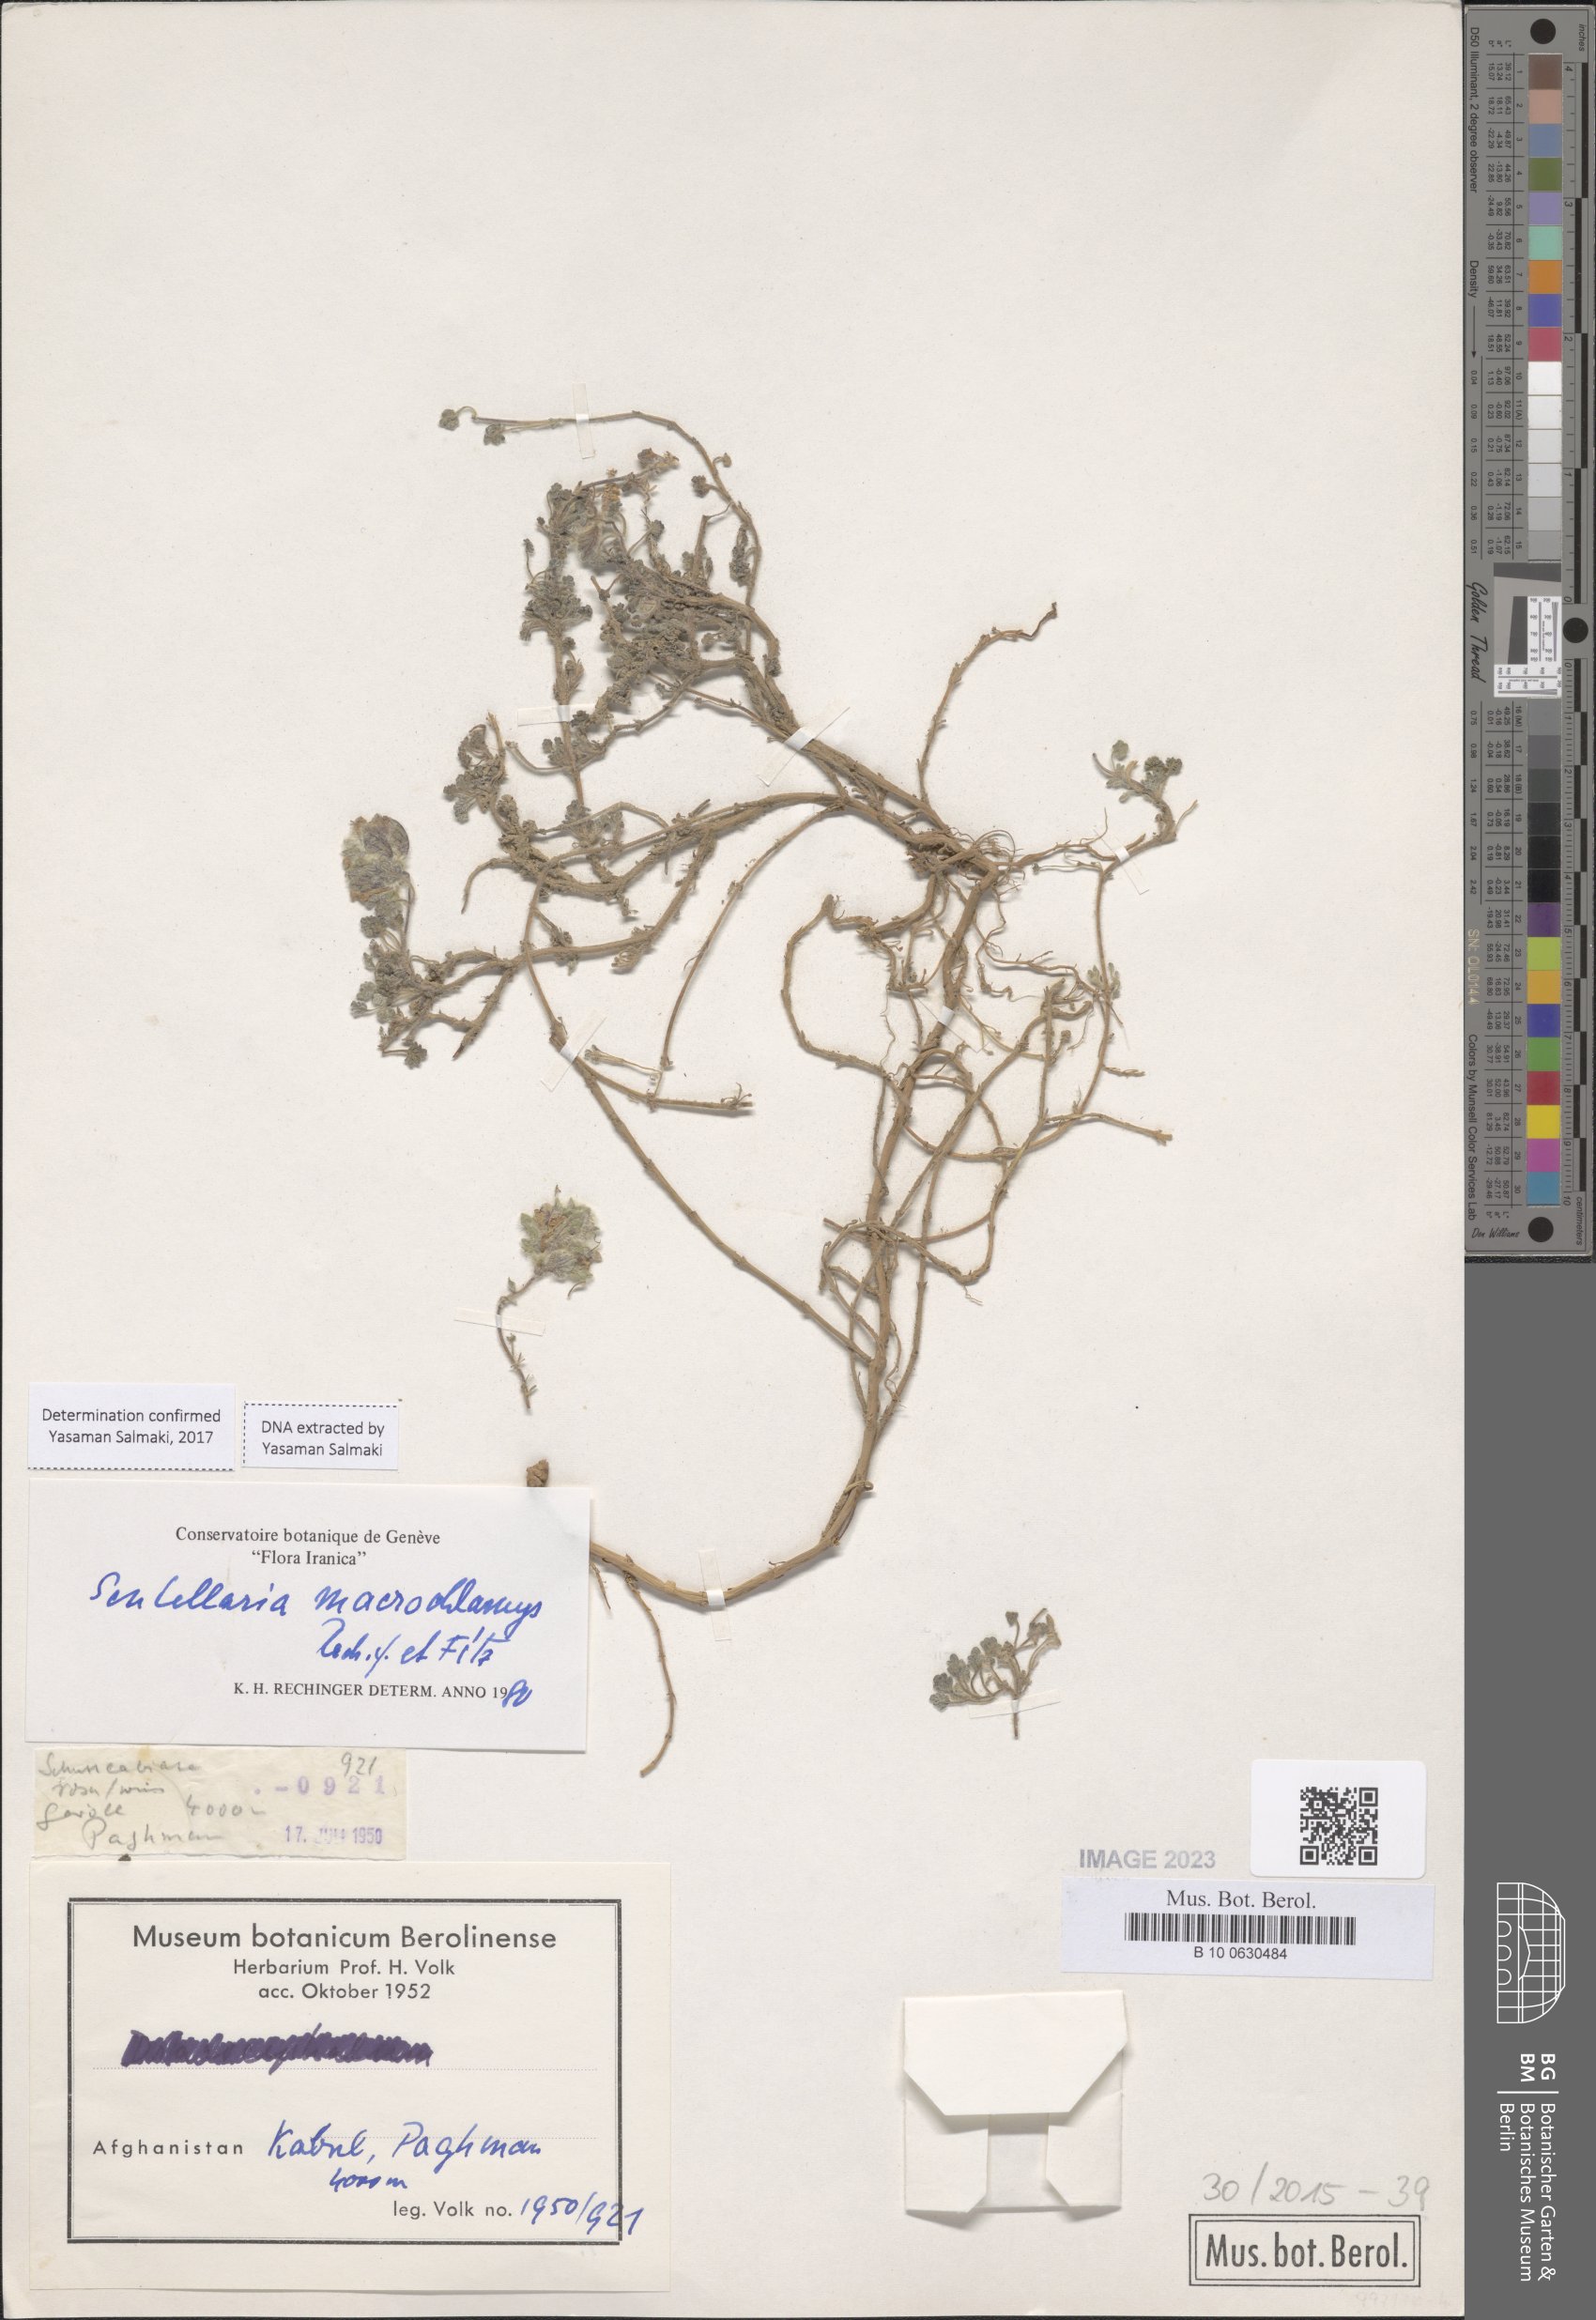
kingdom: Plantae
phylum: Tracheophyta
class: Magnoliopsida
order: Lamiales
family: Lamiaceae
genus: Scutellaria
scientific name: Scutellaria macrochlamys
